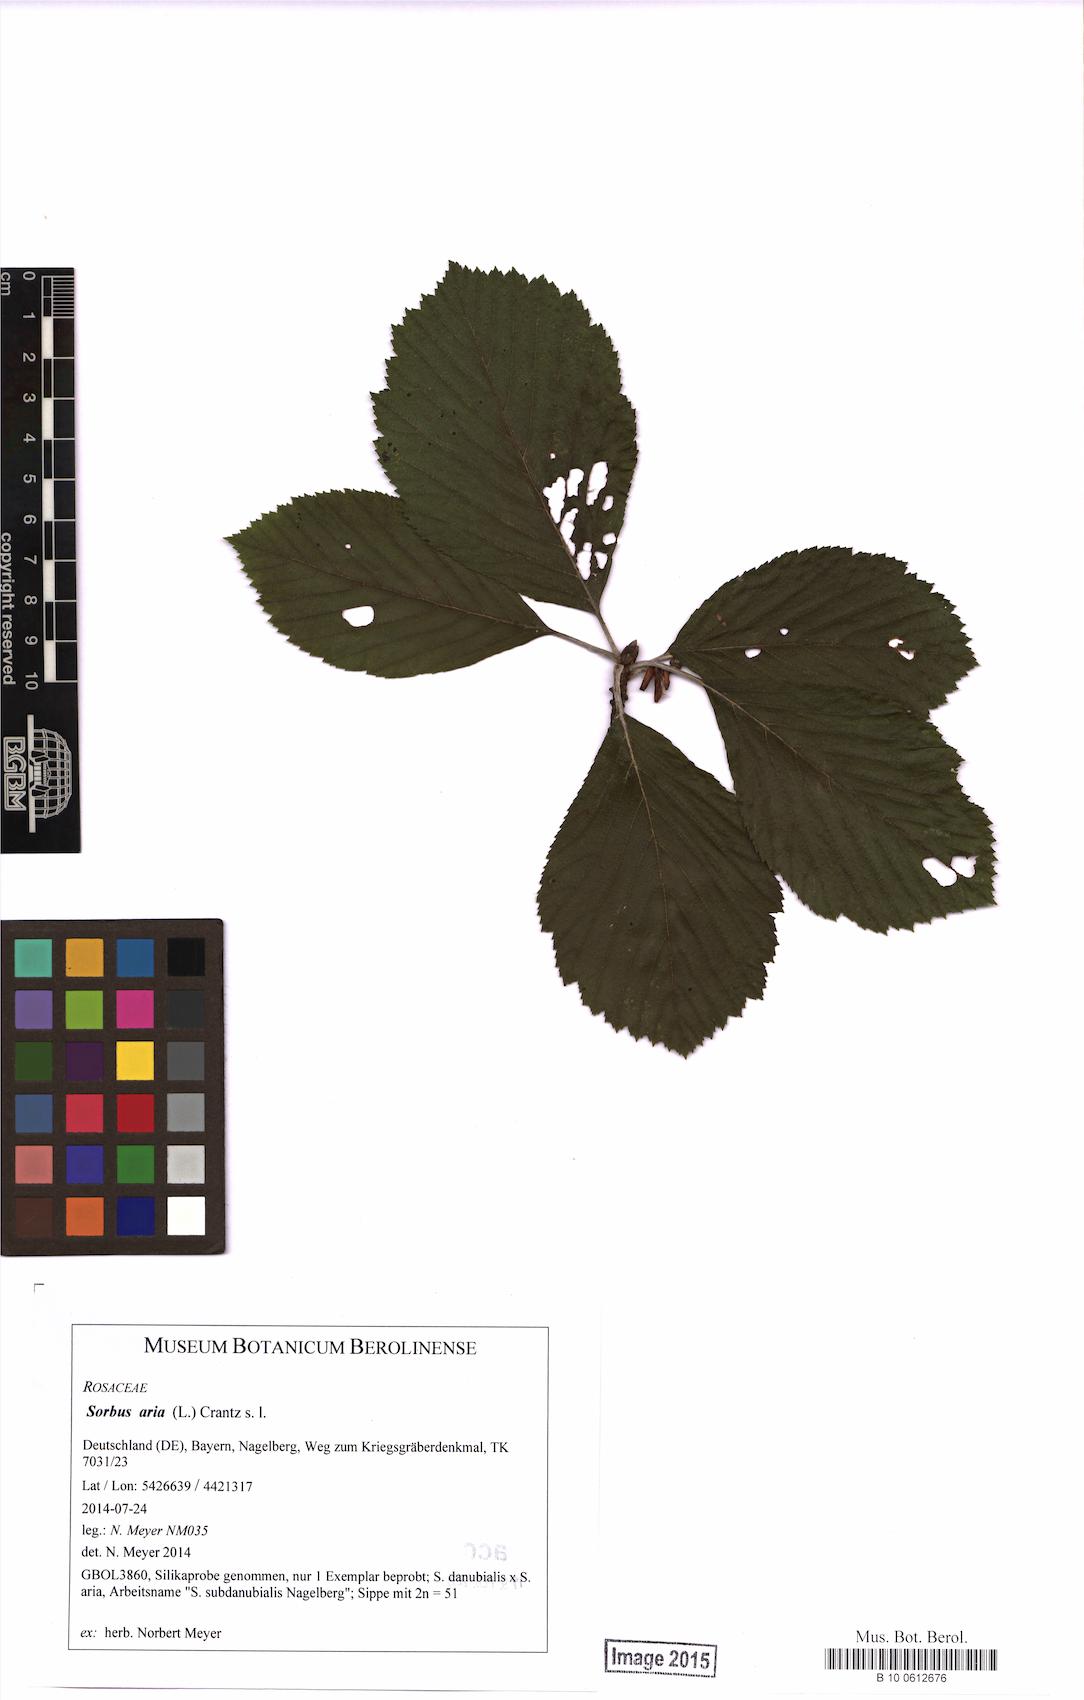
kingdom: Plantae
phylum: Tracheophyta
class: Magnoliopsida
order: Rosales
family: Rosaceae
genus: Aria
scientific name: Aria edulis
